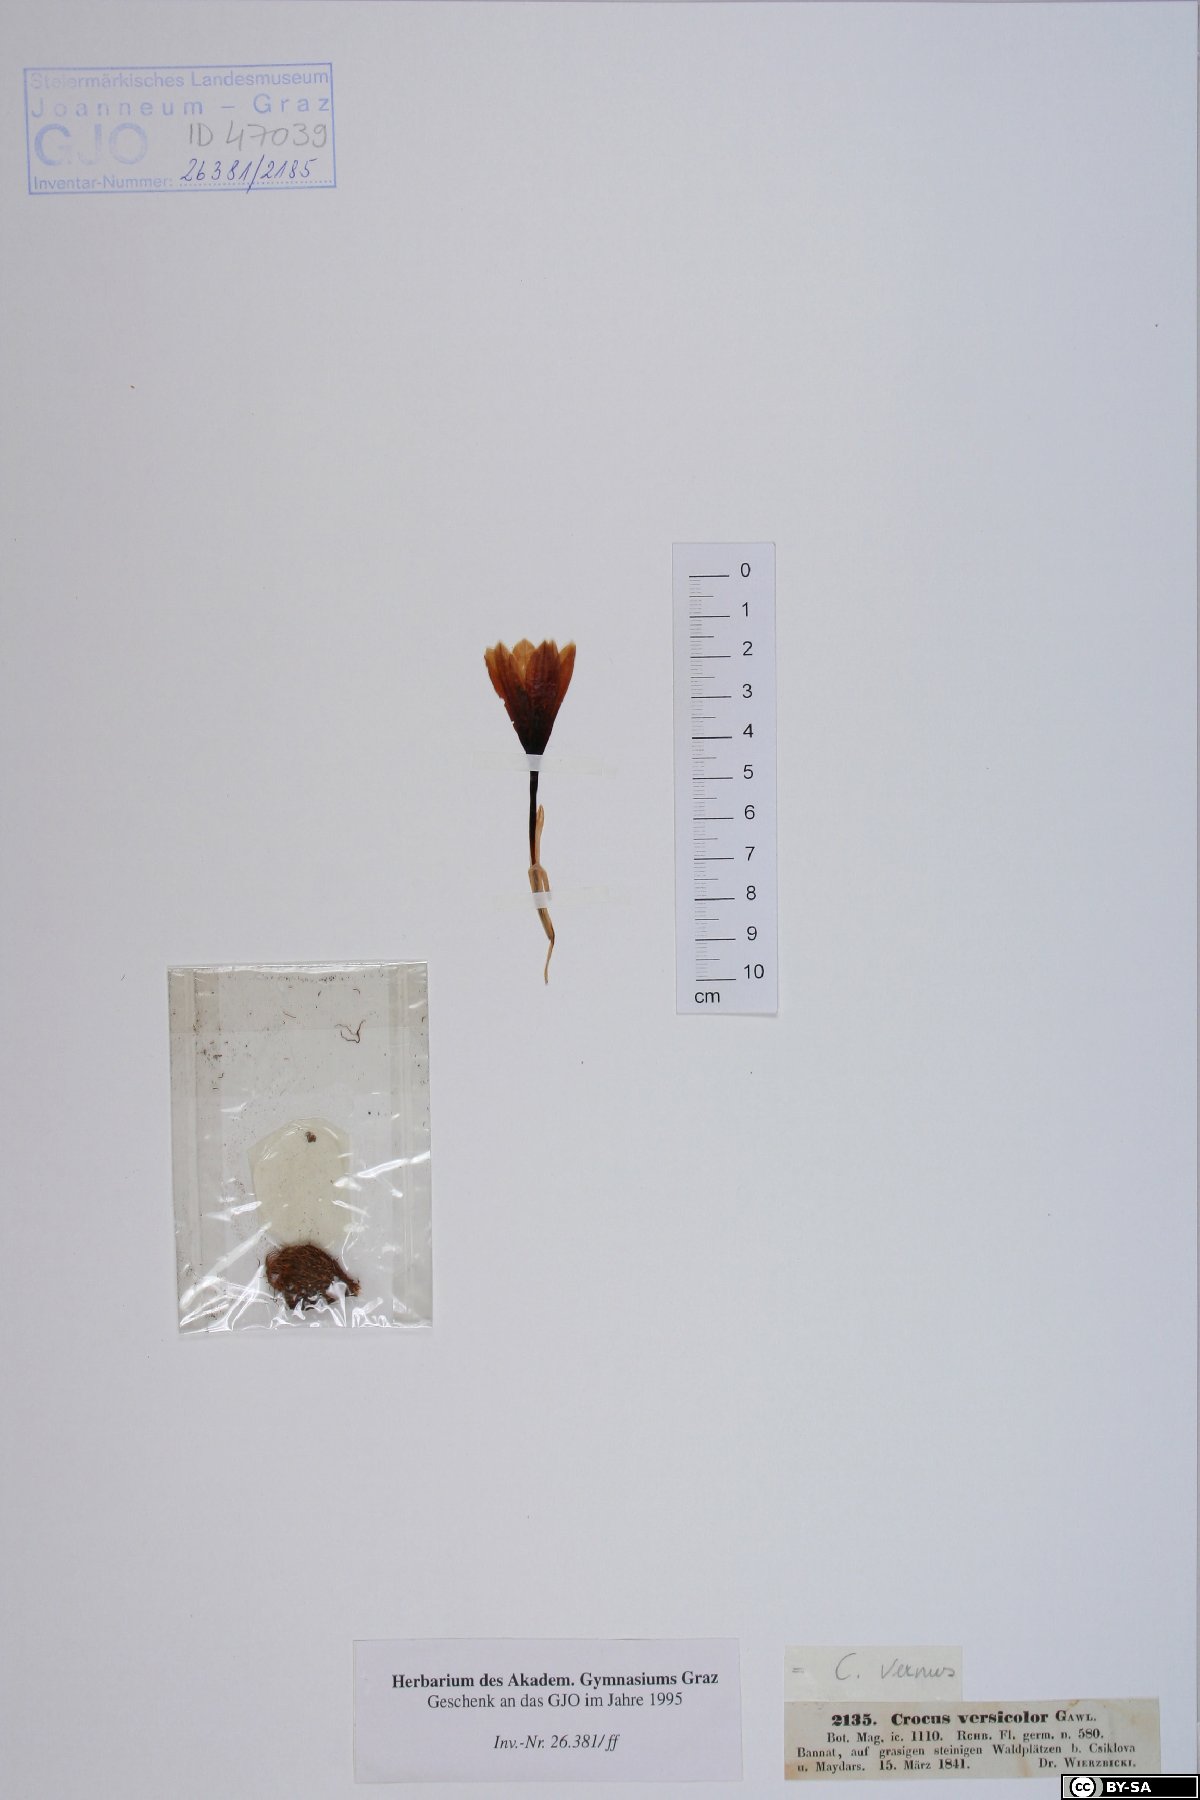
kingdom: Plantae
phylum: Tracheophyta
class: Liliopsida
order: Asparagales
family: Iridaceae
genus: Crocus
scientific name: Crocus versicolor
